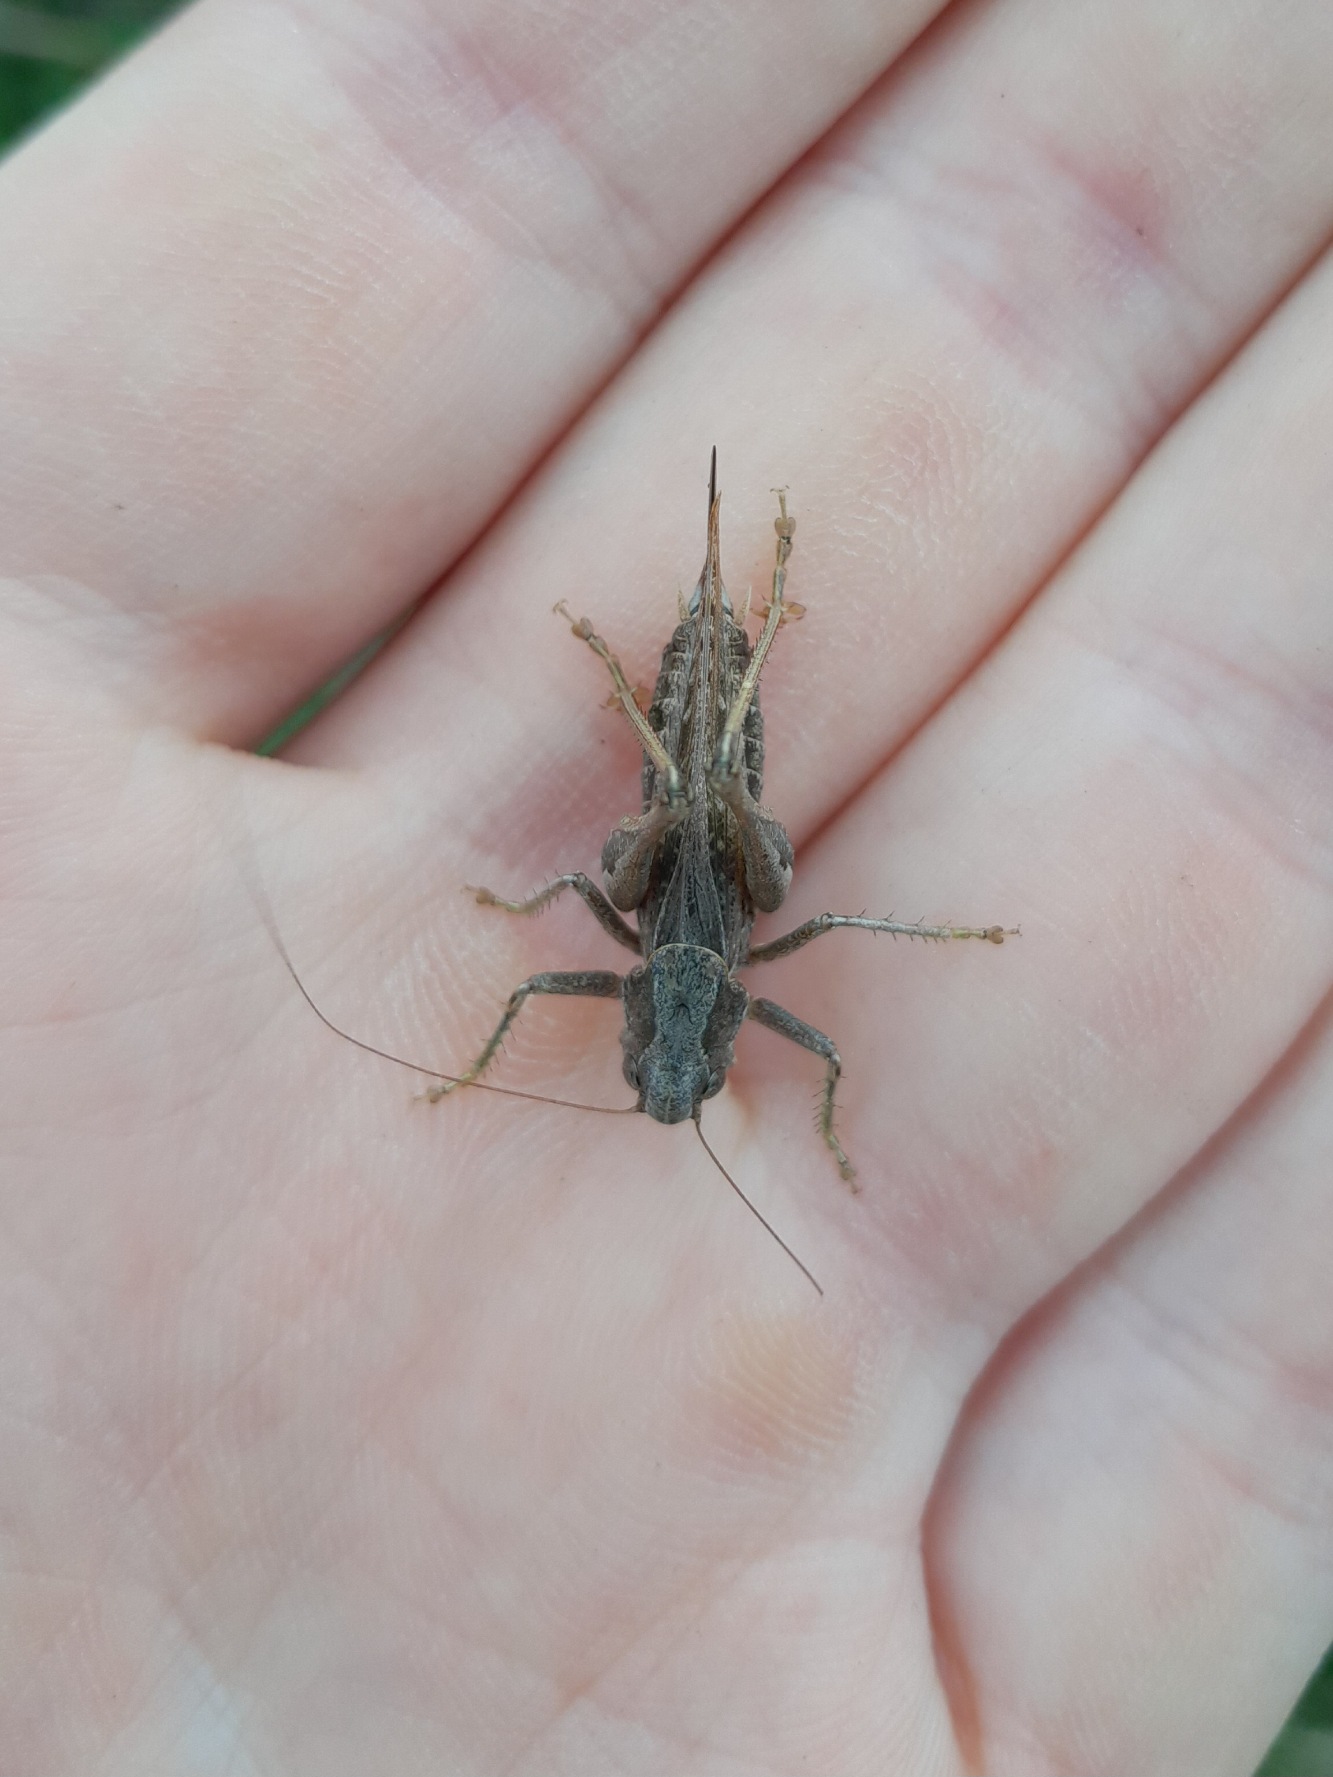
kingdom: Animalia
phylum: Arthropoda
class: Insecta
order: Orthoptera
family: Tettigoniidae
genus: Platycleis
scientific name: Platycleis albopunctata
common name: Sandgræshoppe
